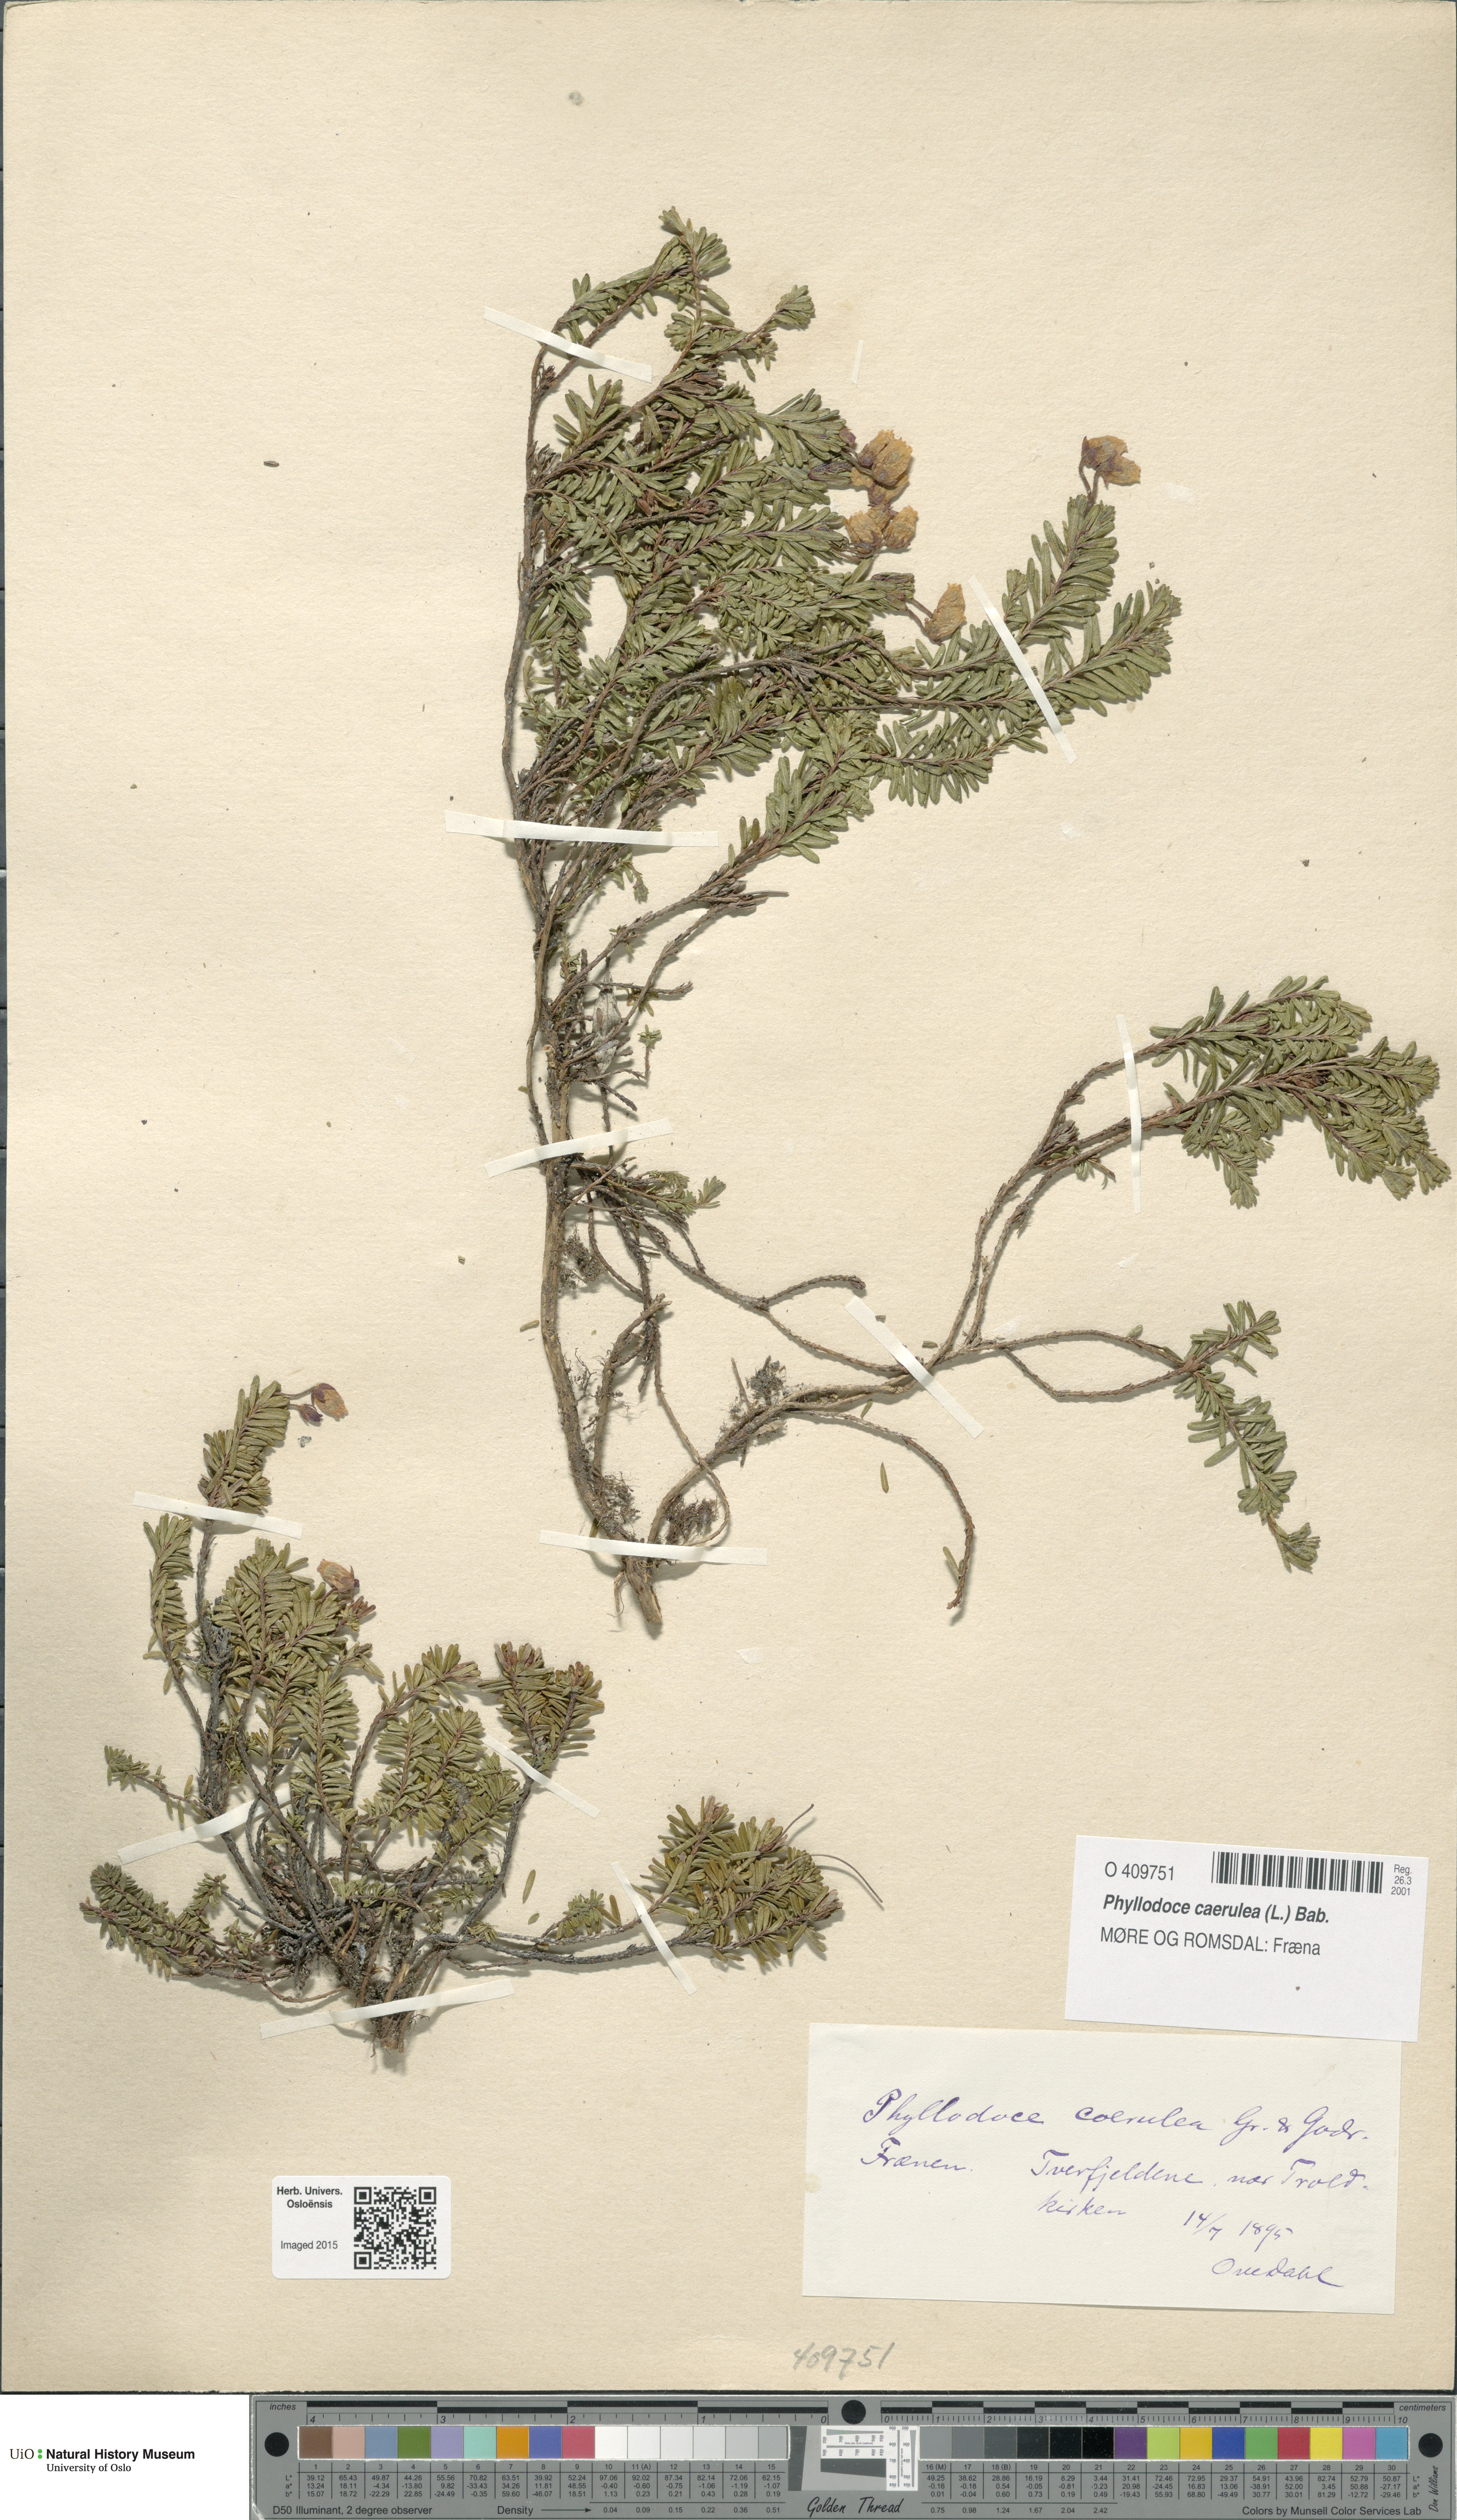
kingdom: Plantae
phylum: Tracheophyta
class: Magnoliopsida
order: Ericales
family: Ericaceae
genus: Phyllodoce
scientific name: Phyllodoce caerulea
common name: Blue heath
